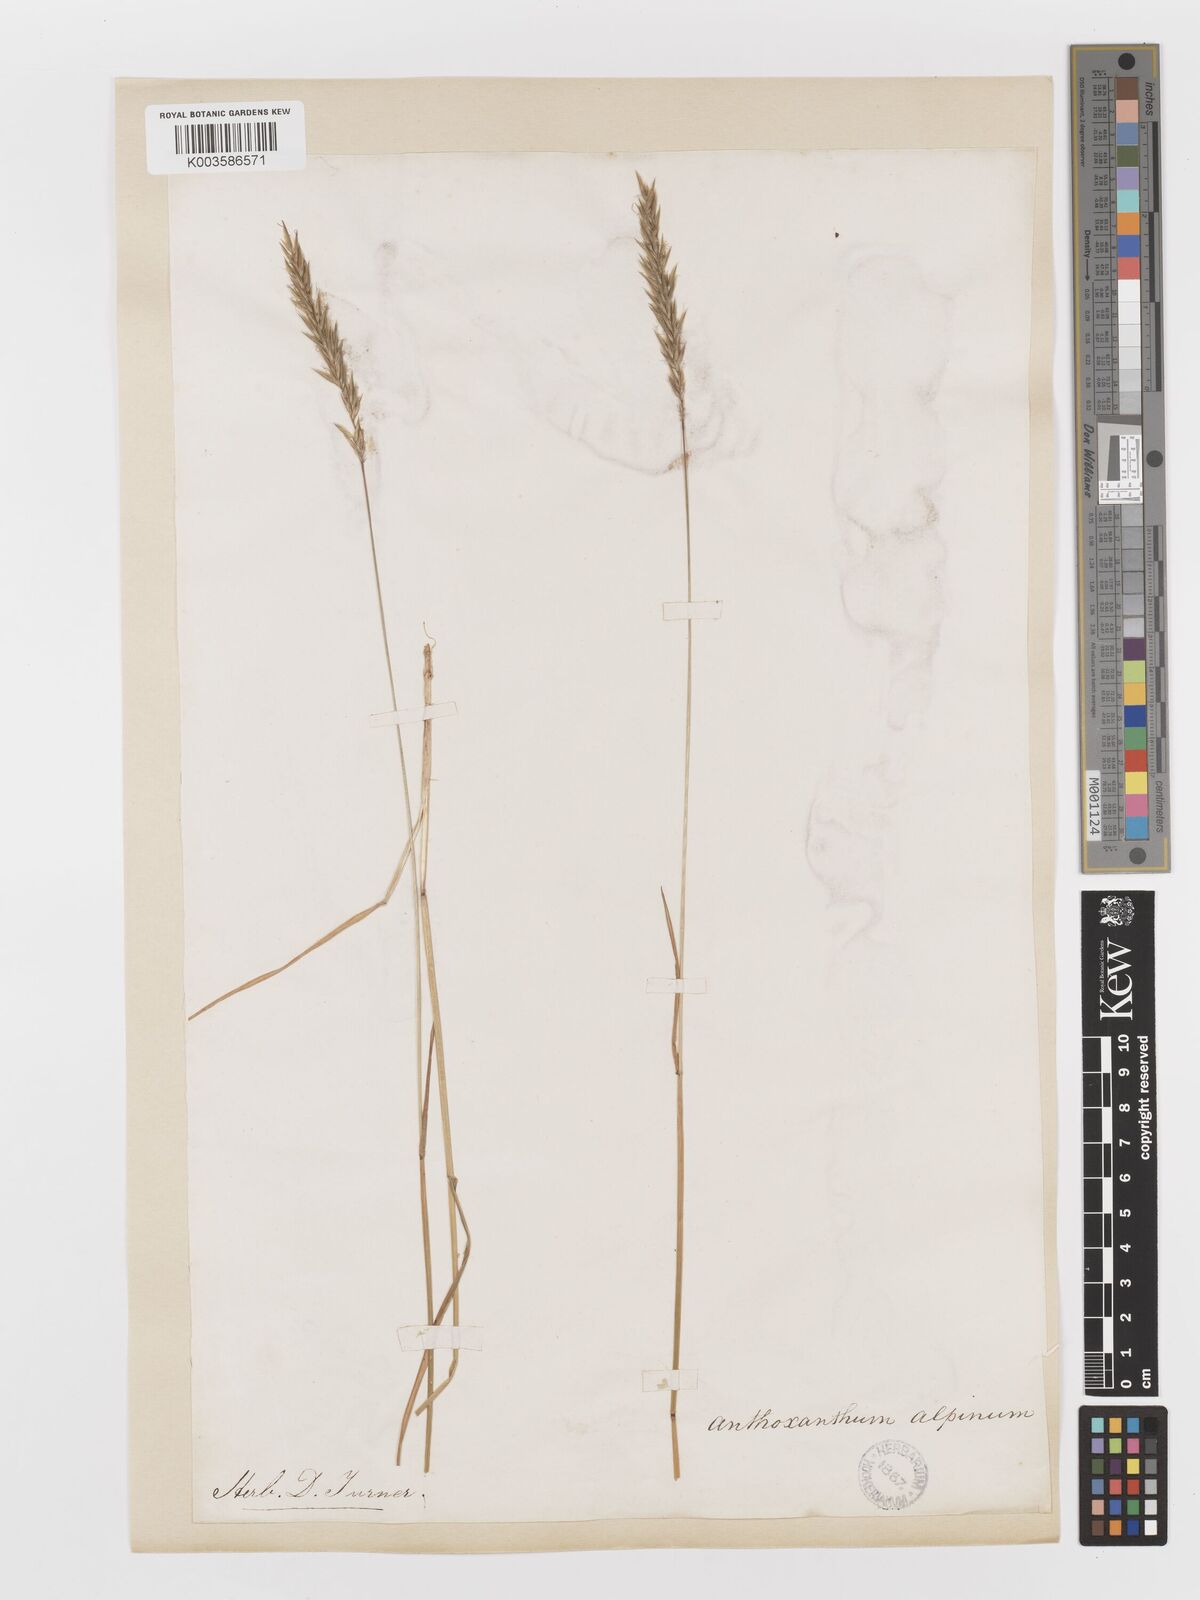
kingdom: Plantae
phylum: Tracheophyta
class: Liliopsida
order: Poales
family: Poaceae
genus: Anthoxanthum
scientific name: Anthoxanthum odoratum
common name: Sweet vernalgrass
